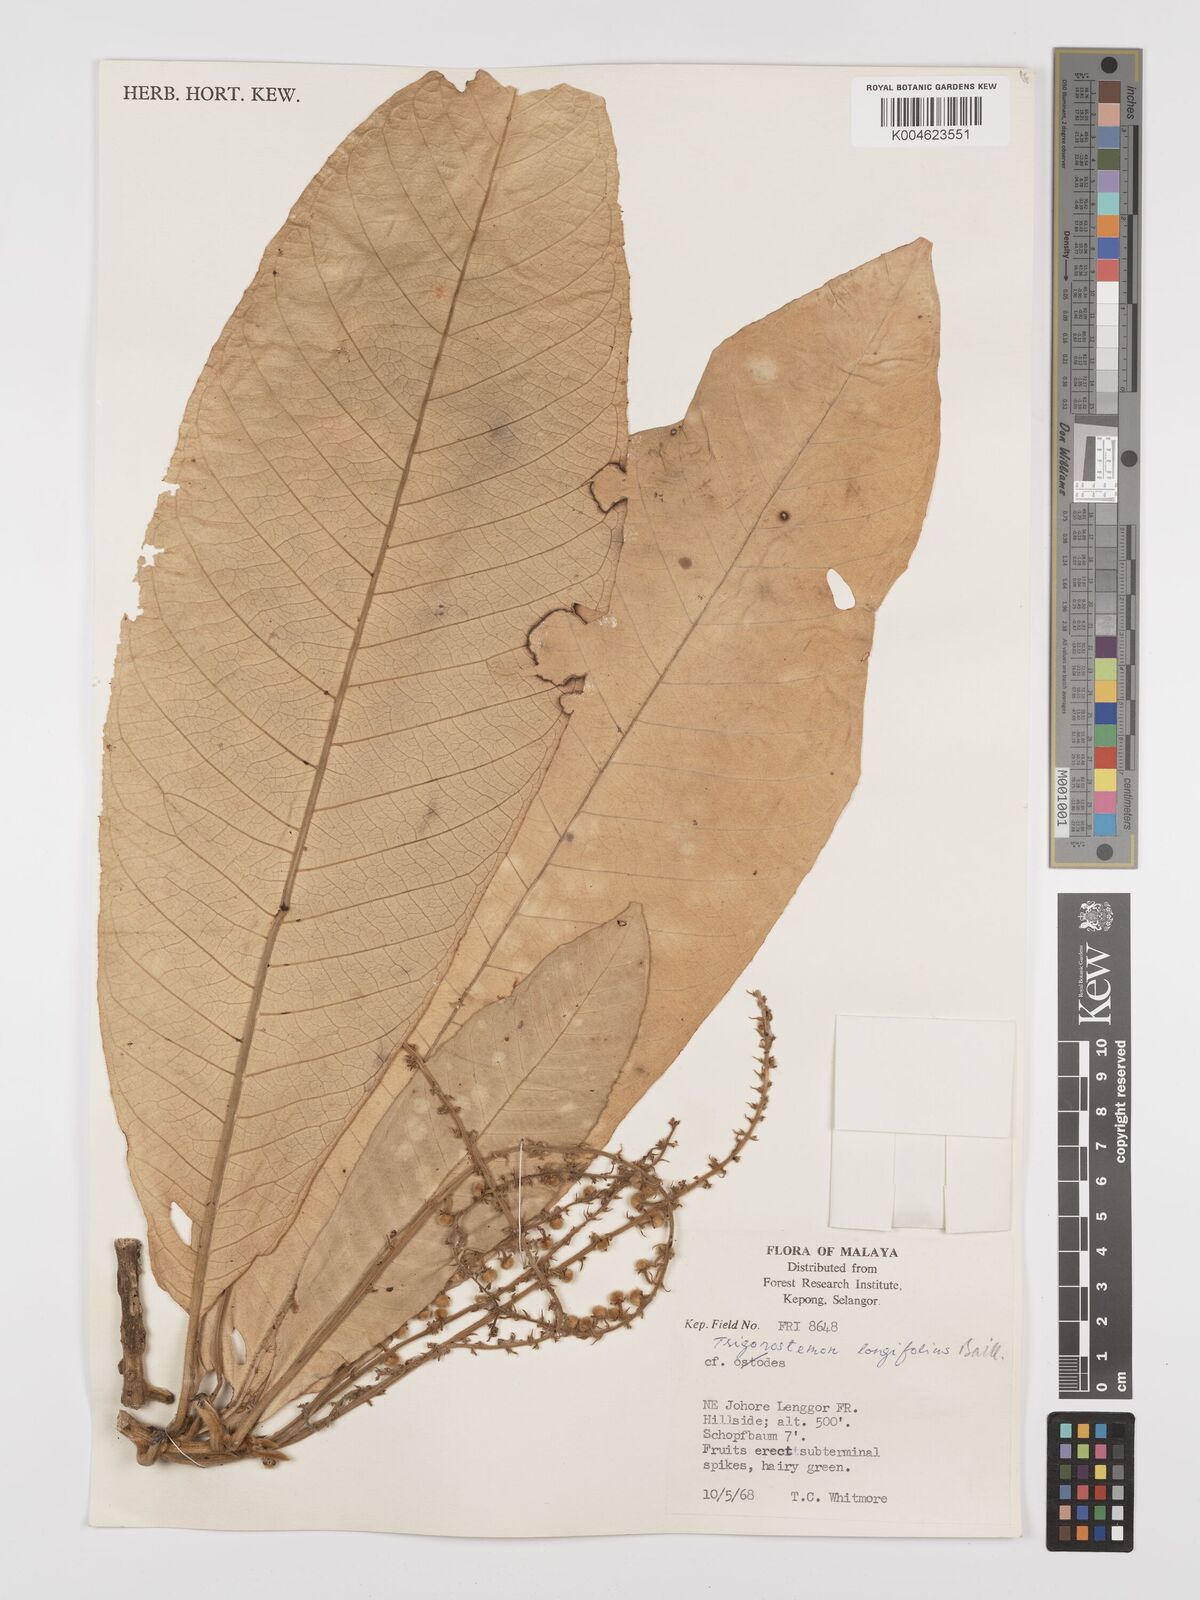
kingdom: Plantae
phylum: Tracheophyta
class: Magnoliopsida
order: Malpighiales
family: Euphorbiaceae
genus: Trigonostemon
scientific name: Trigonostemon longifolius
